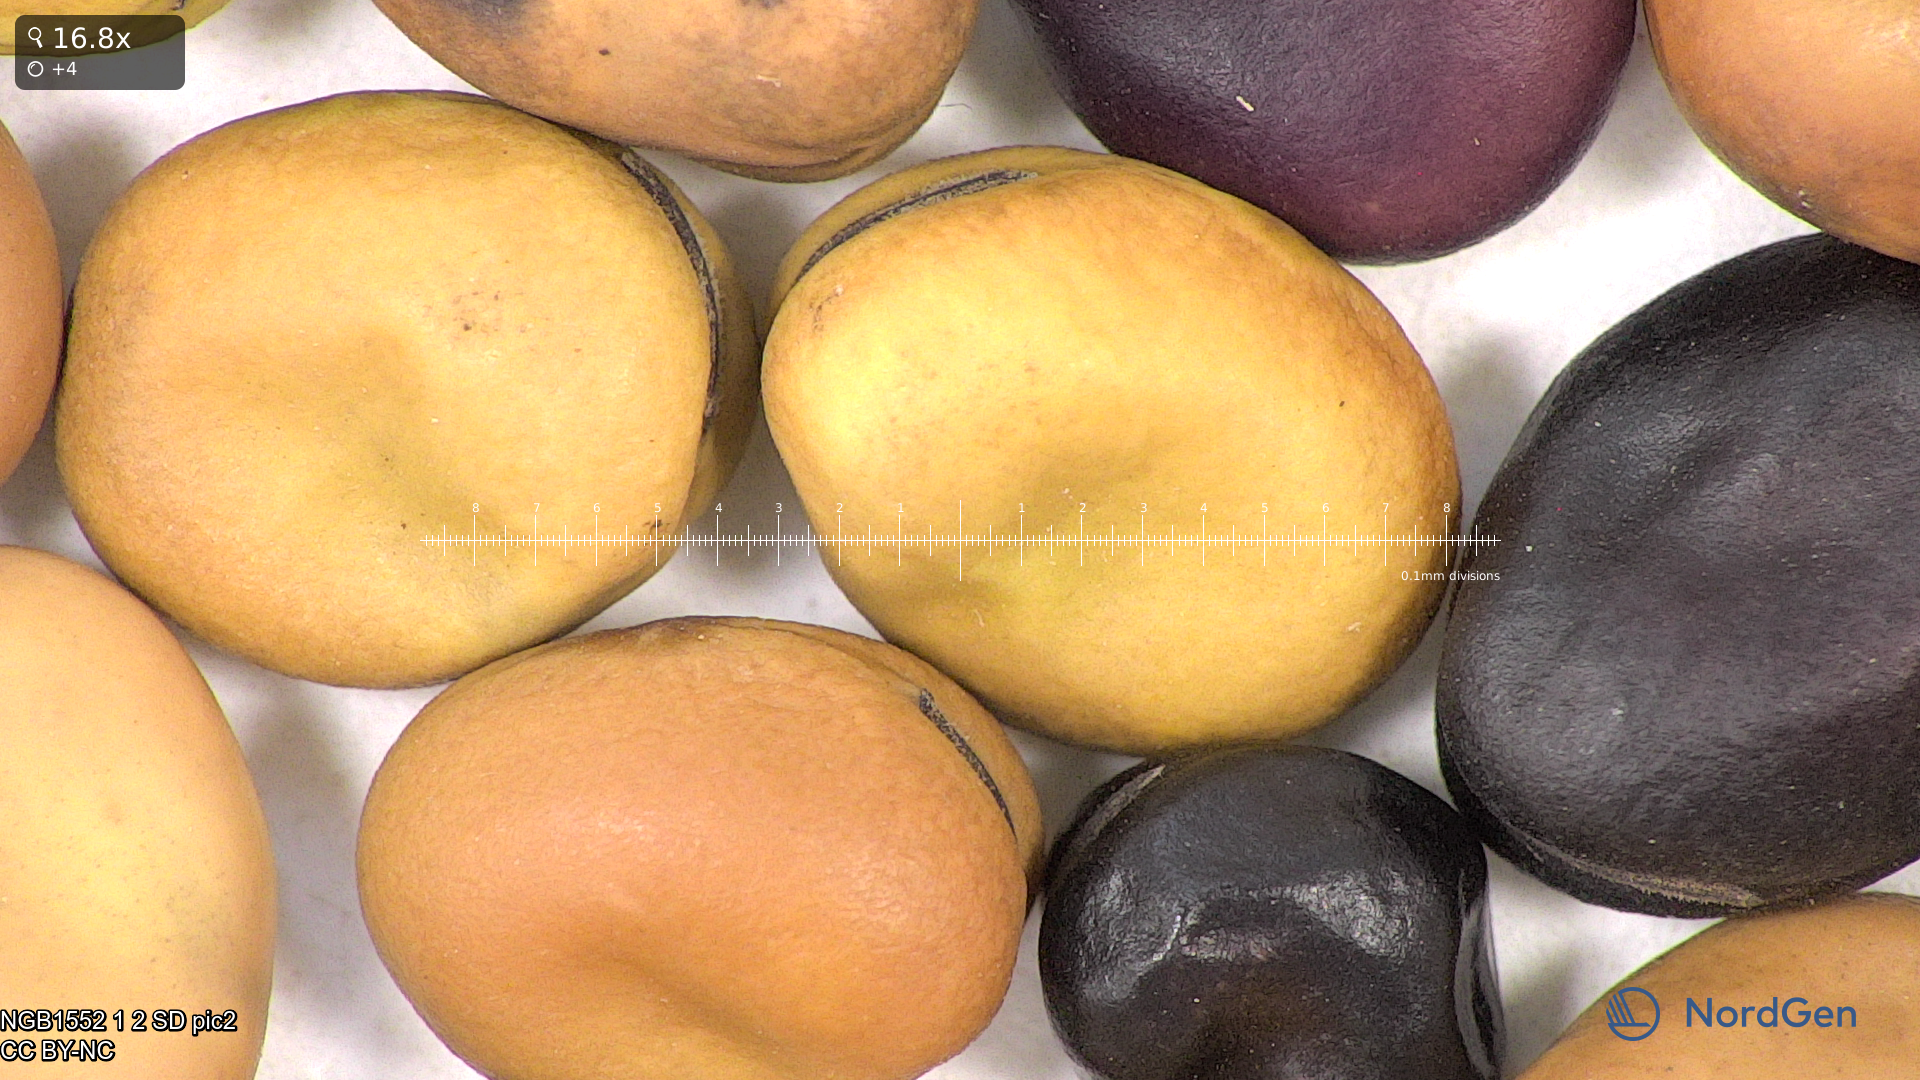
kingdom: Plantae
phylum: Tracheophyta
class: Magnoliopsida
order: Fabales
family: Fabaceae
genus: Vicia
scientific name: Vicia faba
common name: Broad bean
